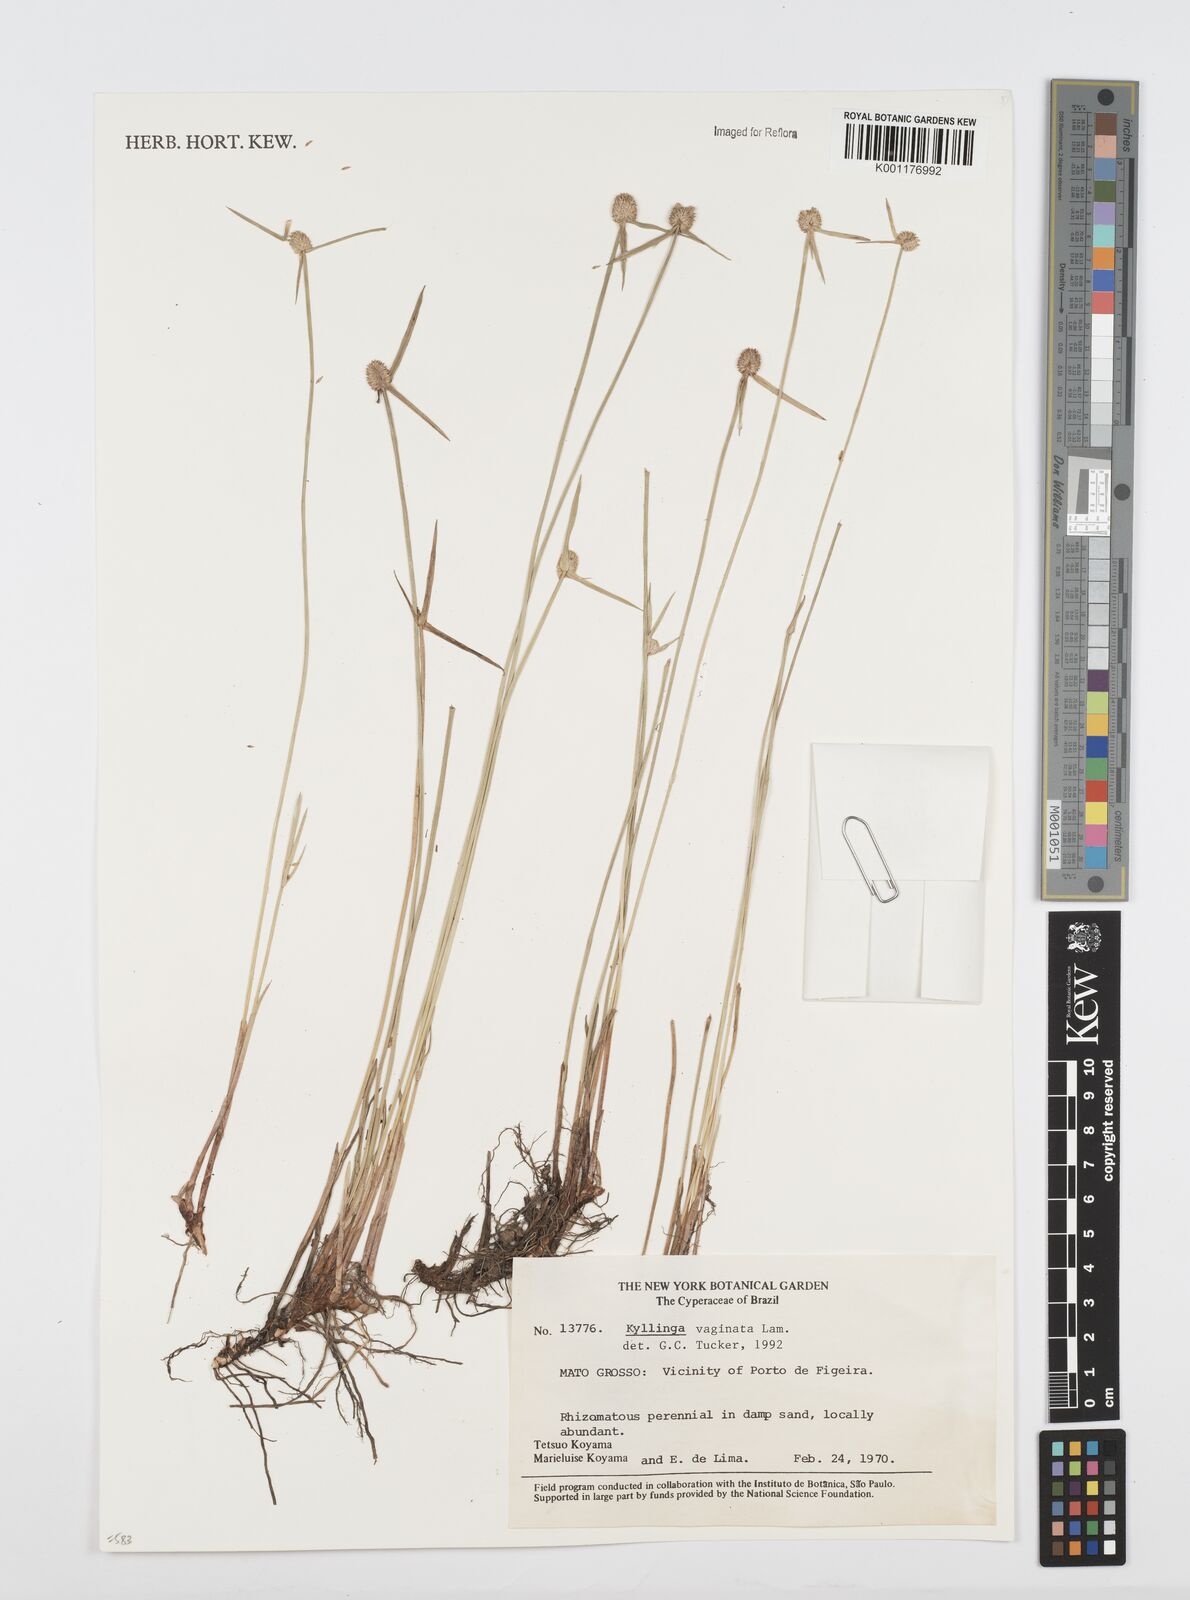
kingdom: Plantae
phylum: Tracheophyta
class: Liliopsida
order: Poales
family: Cyperaceae
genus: Cyperus
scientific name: Cyperus obtusatus
